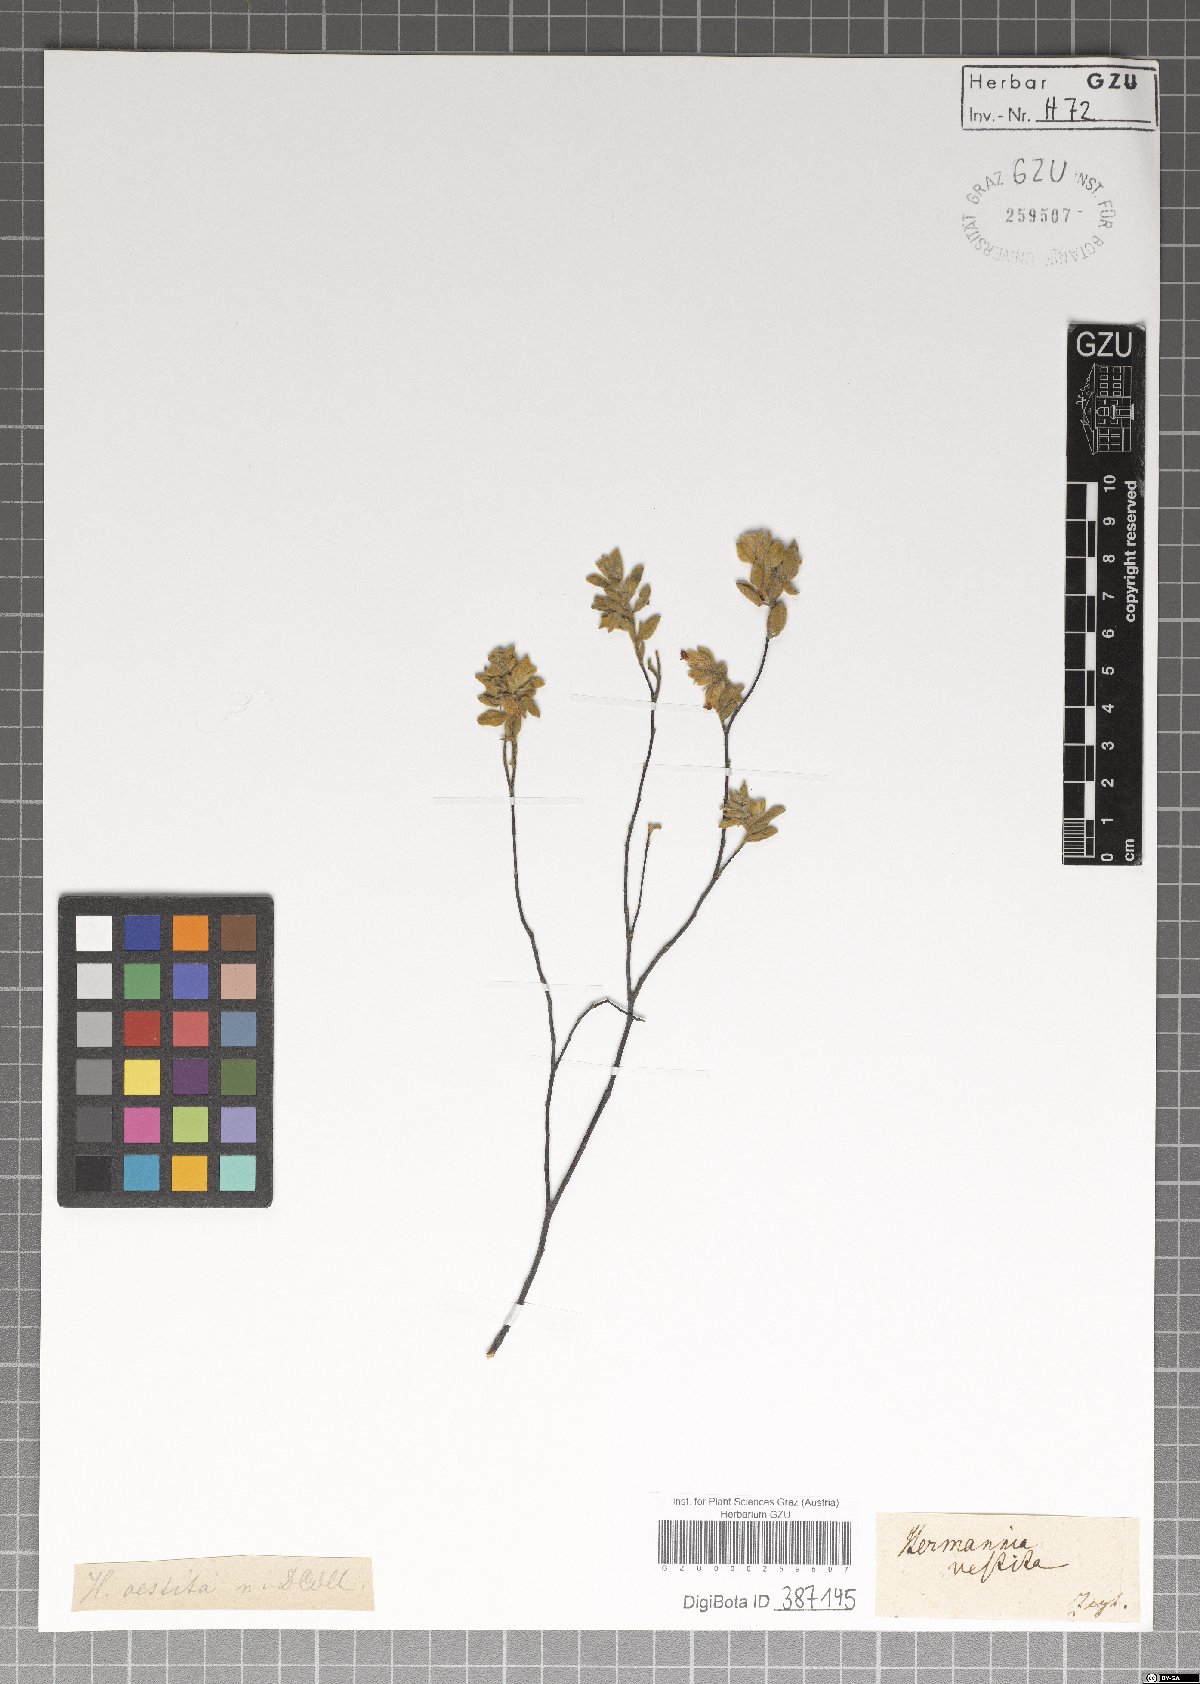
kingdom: Plantae
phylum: Tracheophyta
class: Magnoliopsida
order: Malvales
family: Malvaceae
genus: Hermannia
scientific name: Hermannia vestita
